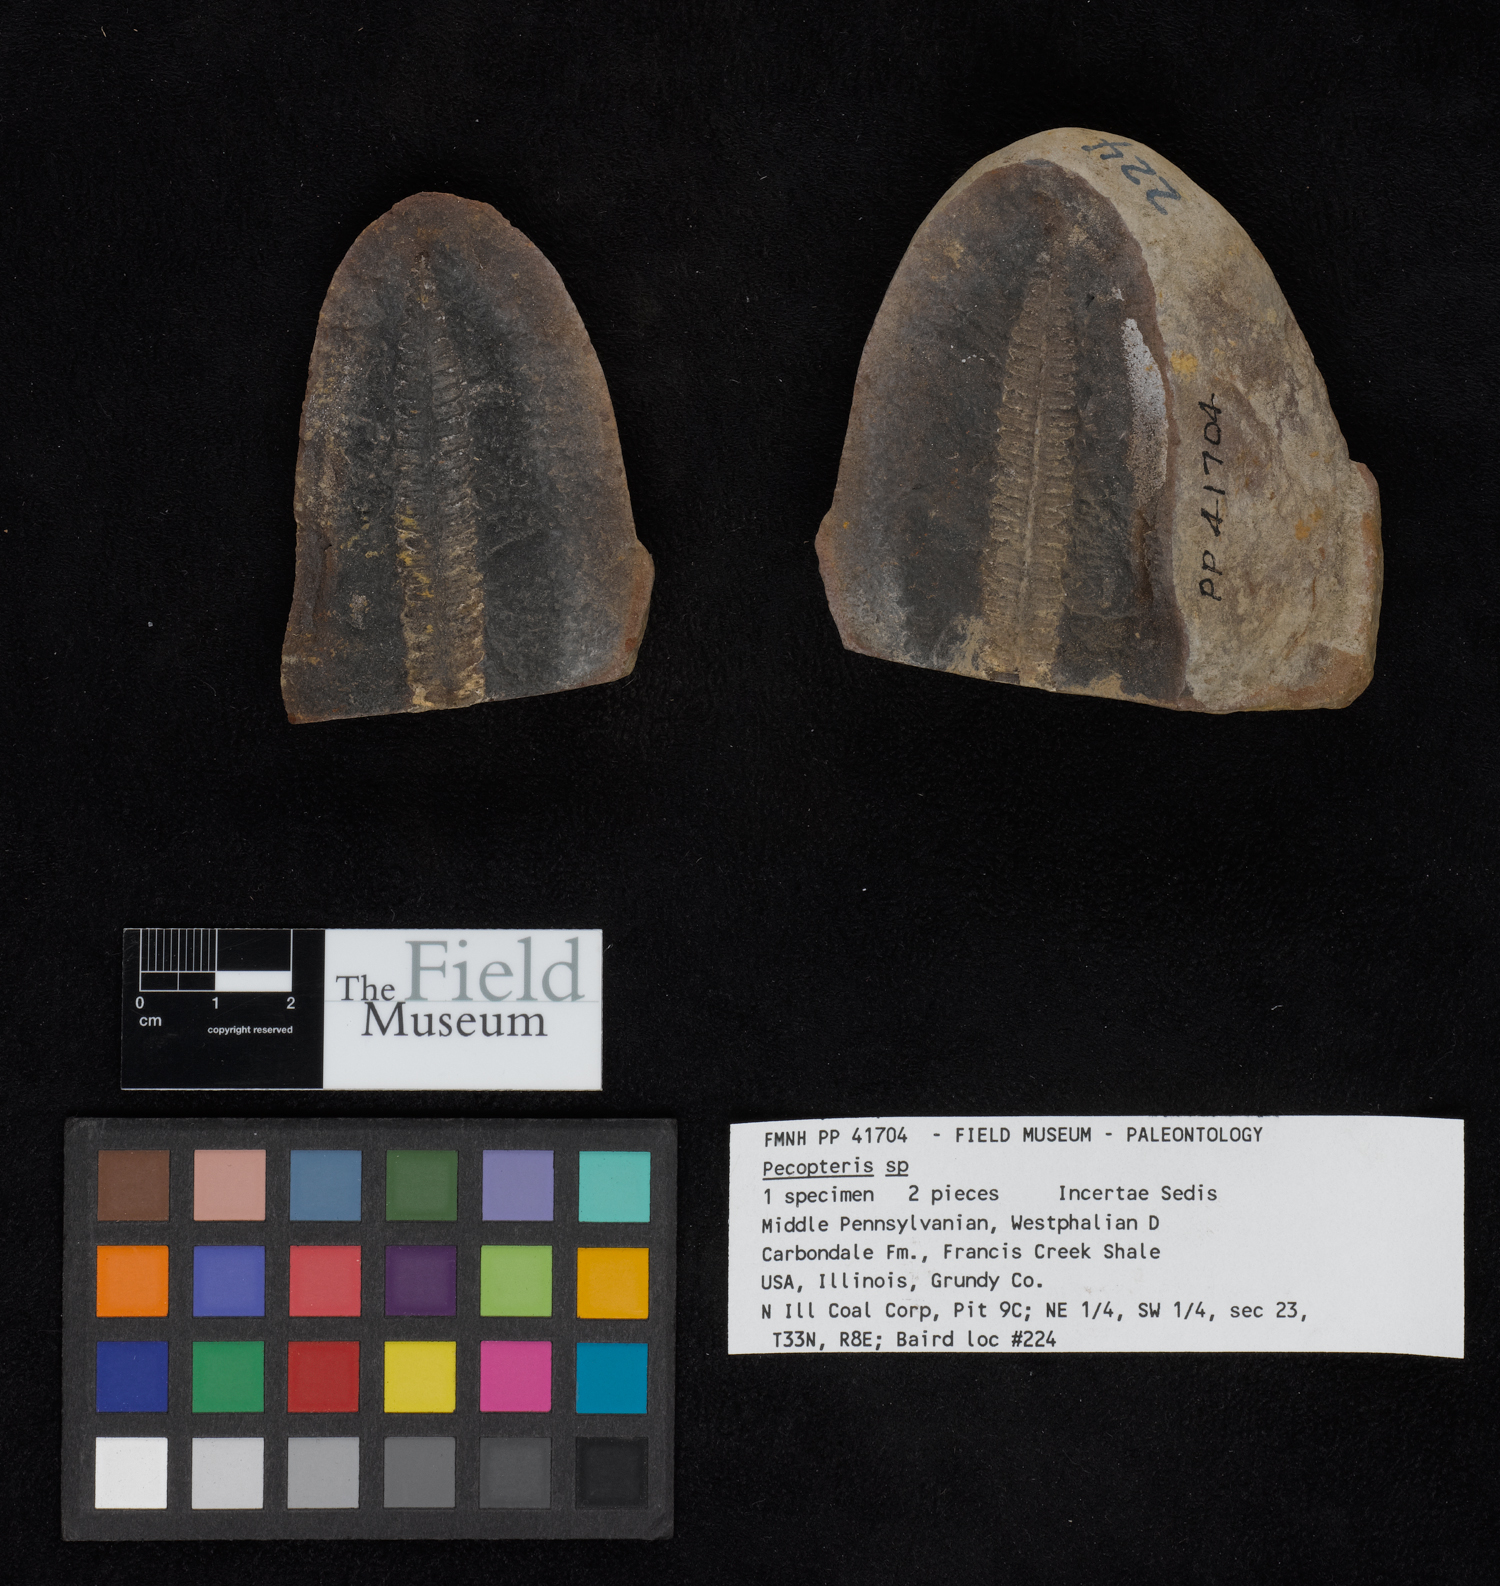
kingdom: Plantae
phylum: Tracheophyta
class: Polypodiopsida
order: Marattiales
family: Asterothecaceae
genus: Pecopteris
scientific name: Pecopteris
